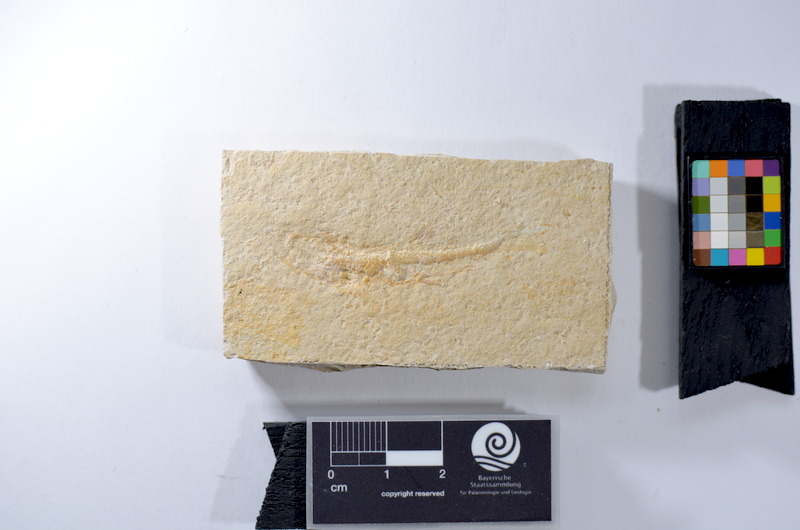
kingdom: Animalia
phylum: Chordata
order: Salmoniformes
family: Orthogonikleithridae
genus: Leptolepides
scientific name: Leptolepides
